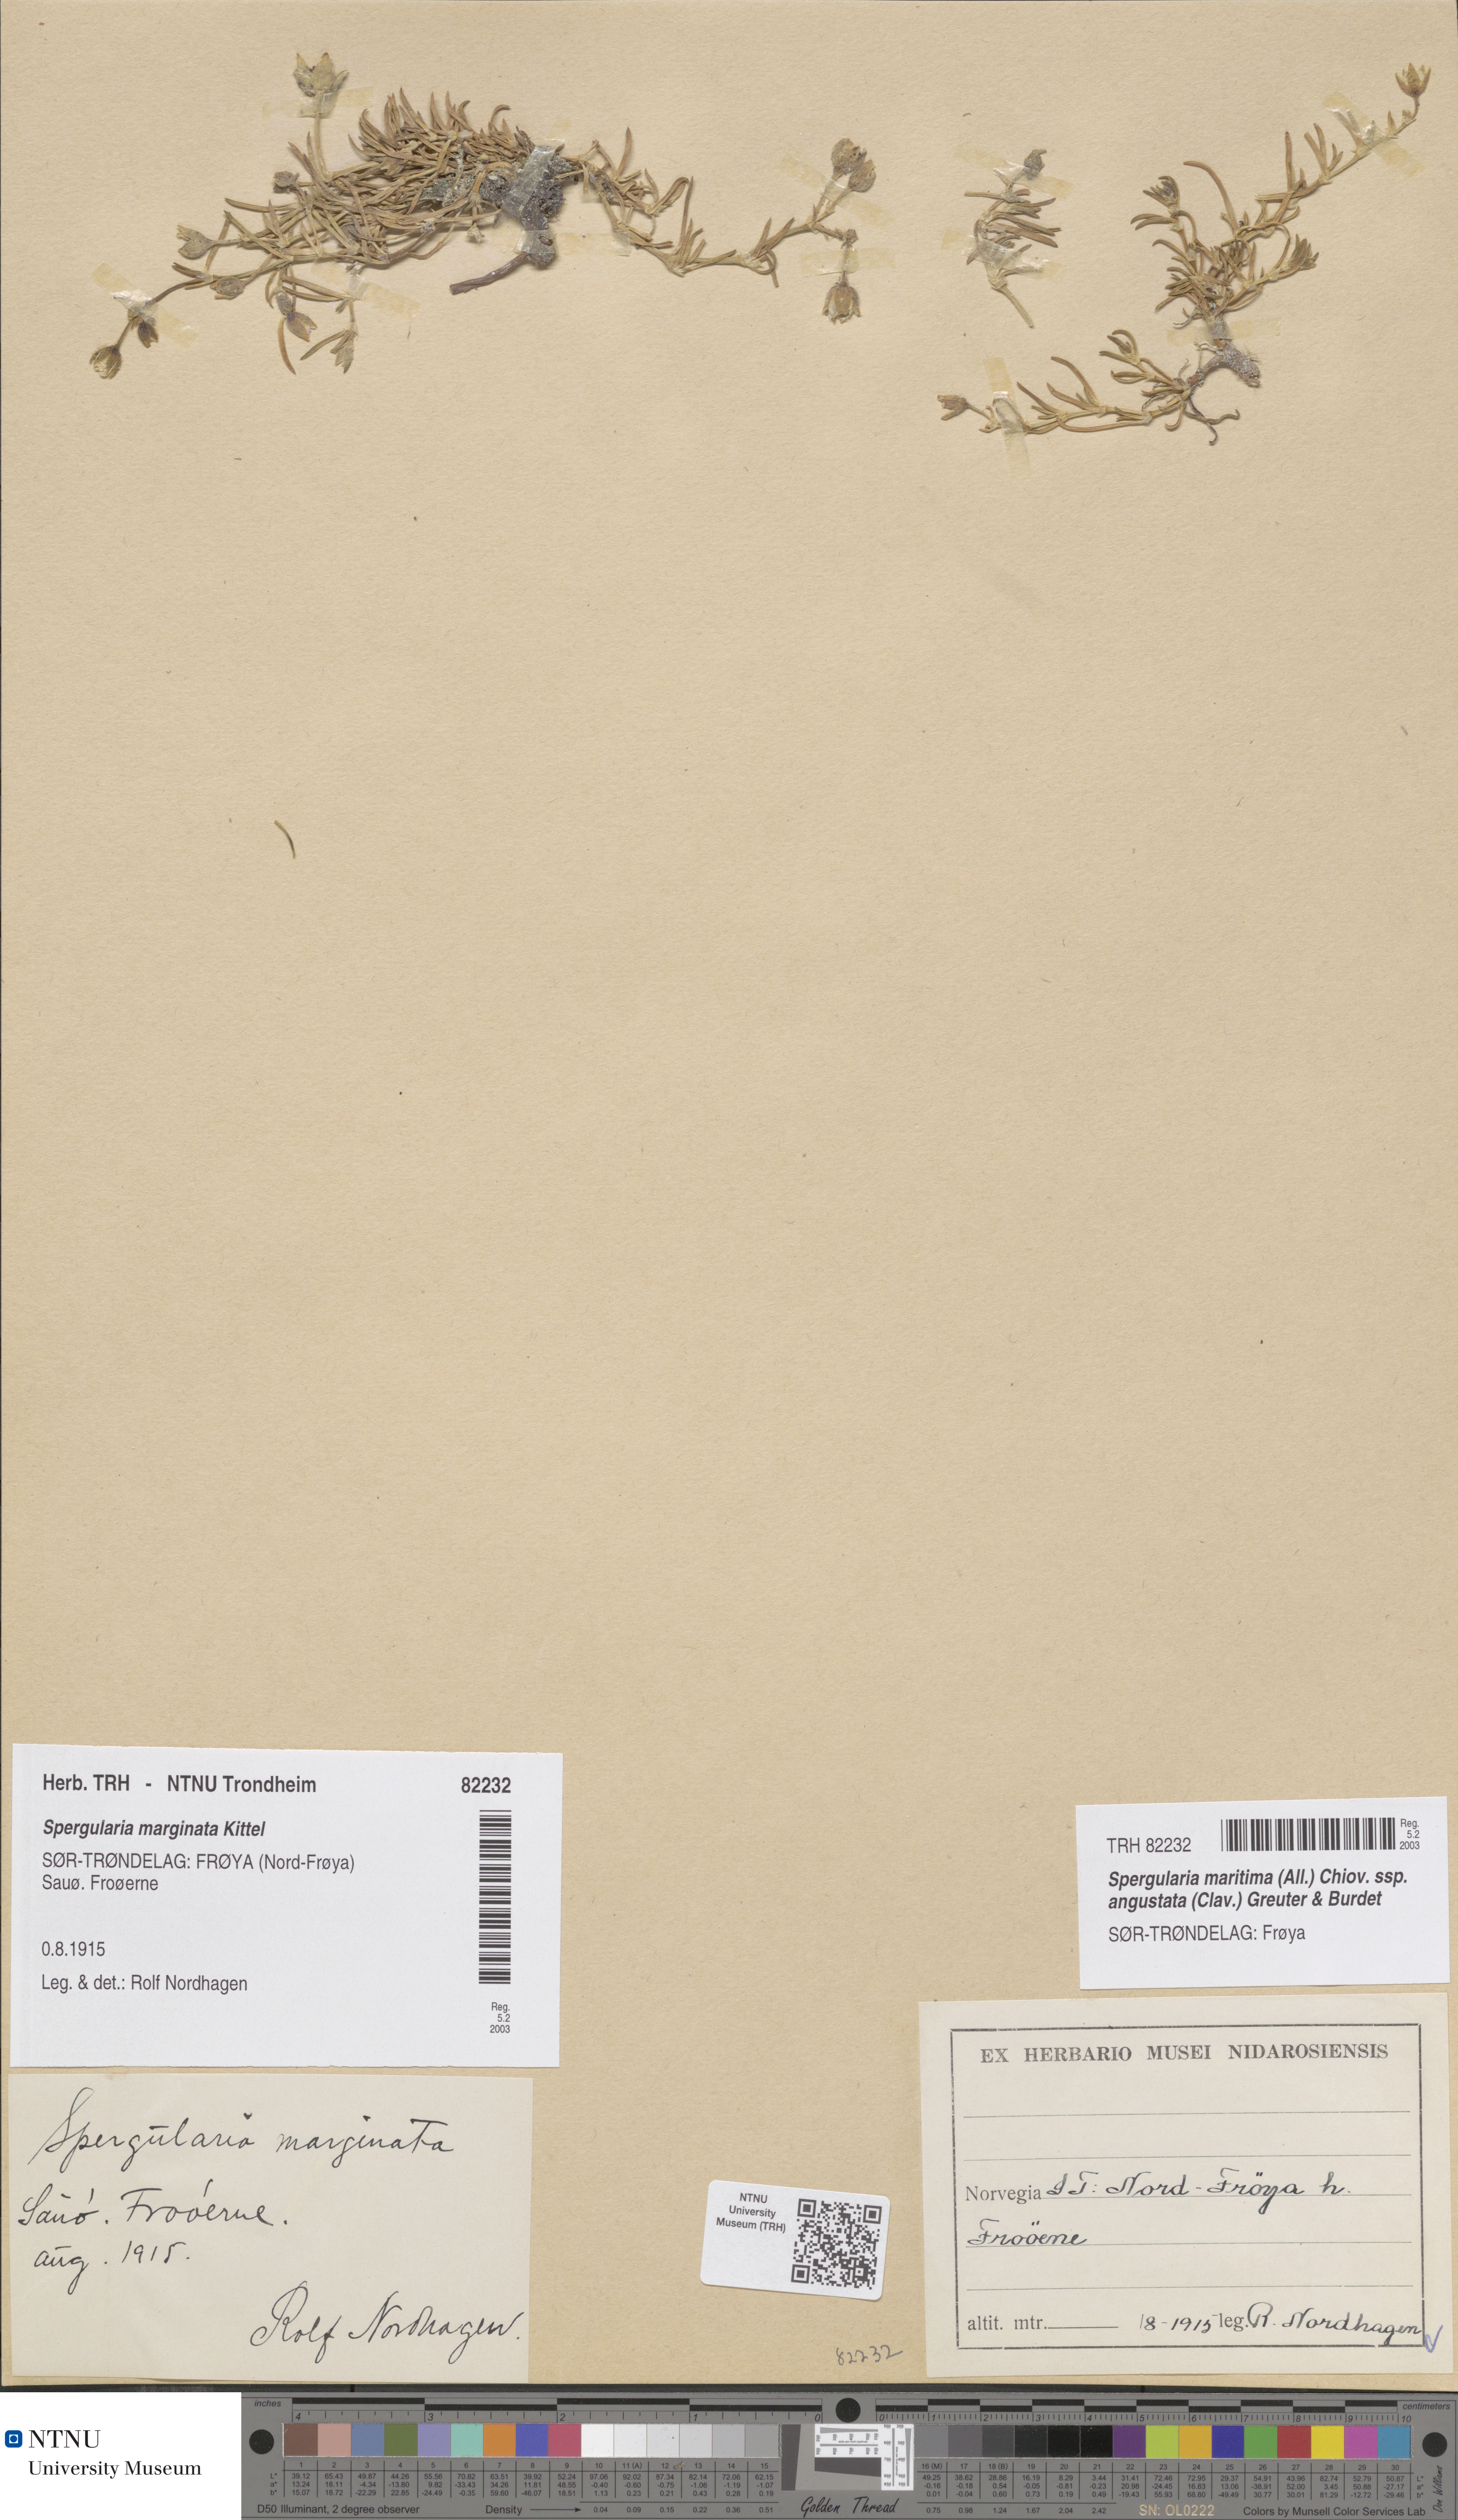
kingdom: Plantae
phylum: Tracheophyta
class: Magnoliopsida
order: Caryophyllales
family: Caryophyllaceae
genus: Spergularia
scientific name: Spergularia media
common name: Greater sea-spurrey
